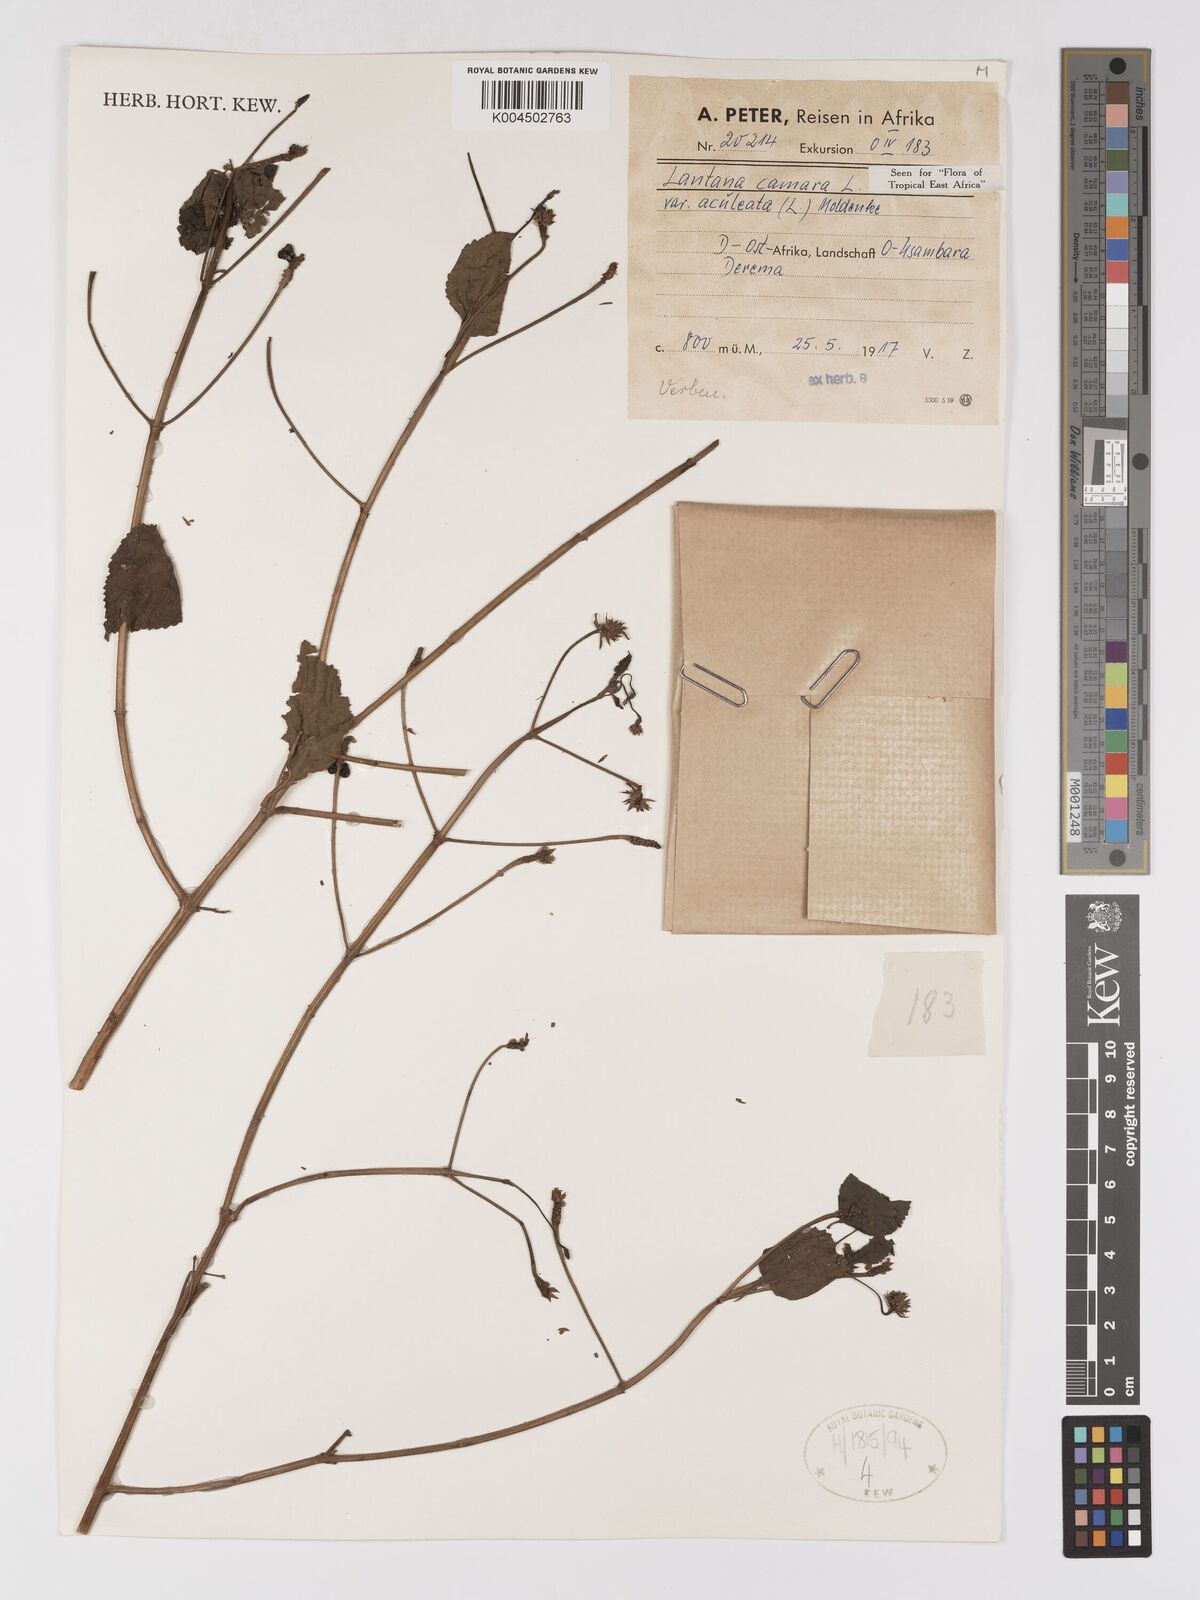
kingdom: Plantae
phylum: Tracheophyta
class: Magnoliopsida
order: Lamiales
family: Verbenaceae
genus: Lantana
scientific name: Lantana camara
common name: Lantana
